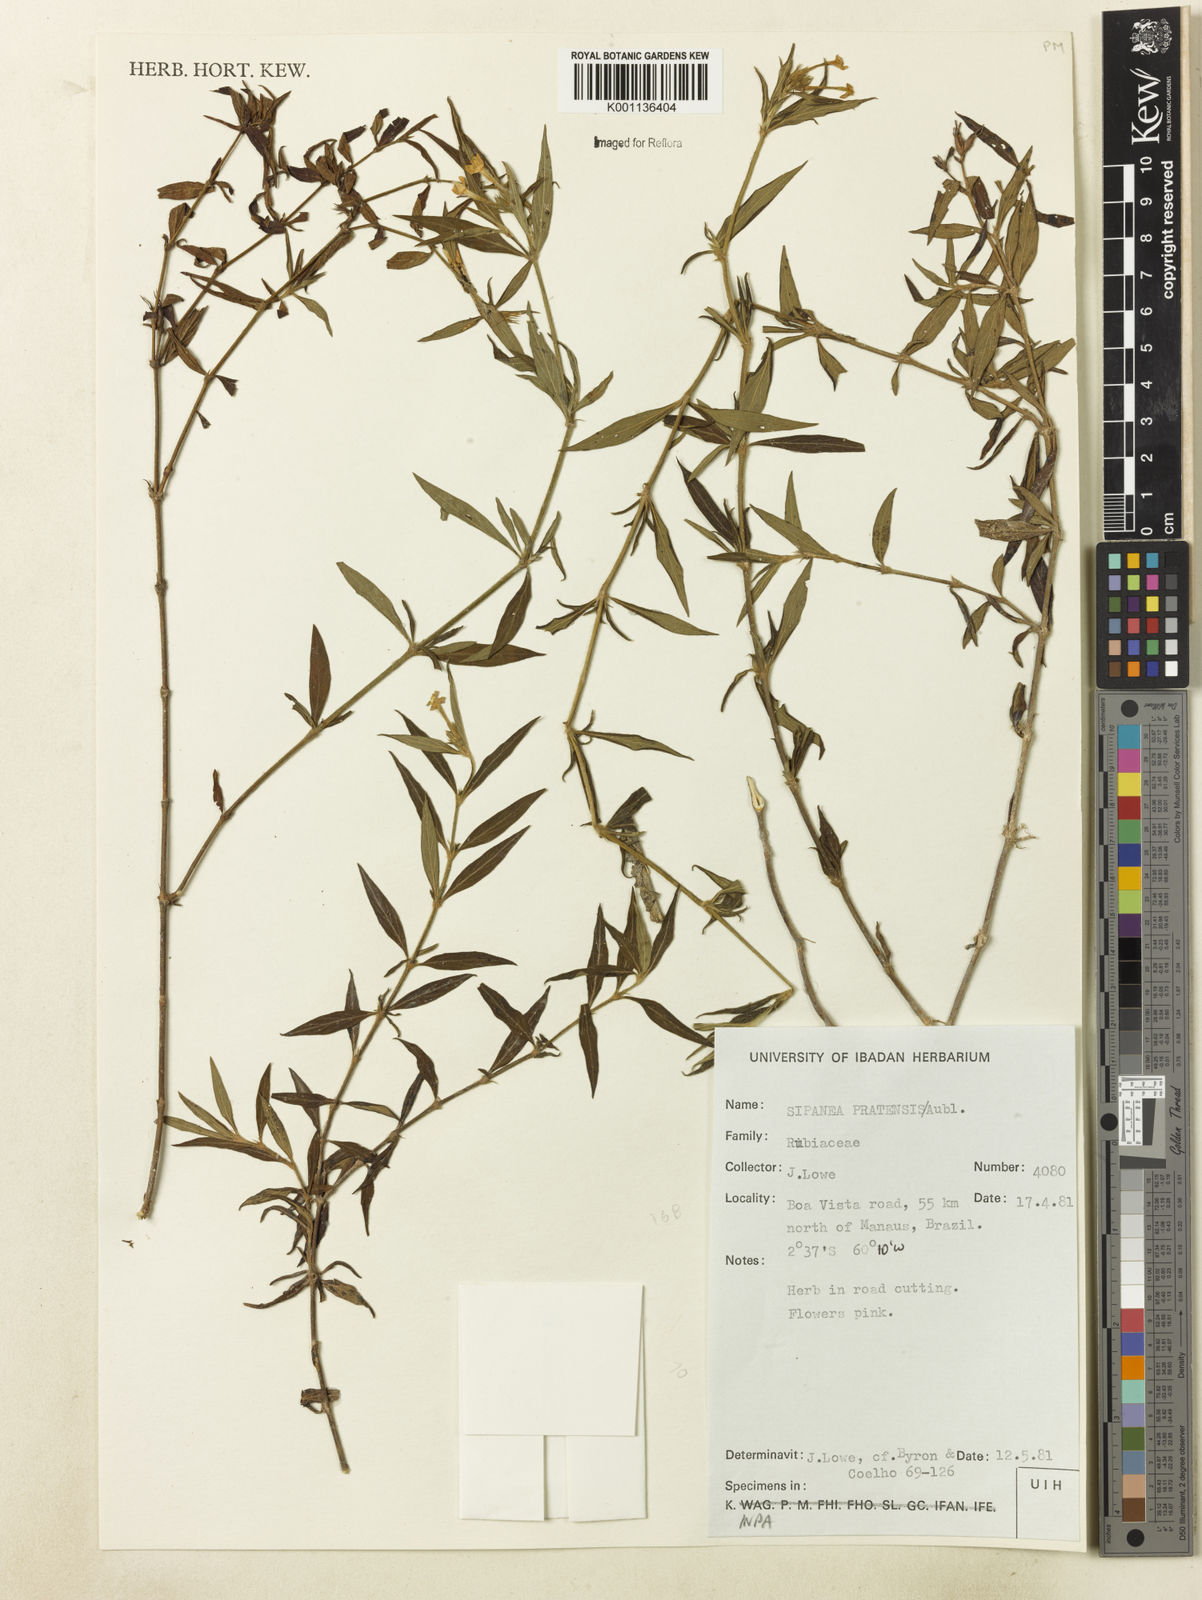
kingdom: Plantae
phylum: Tracheophyta
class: Magnoliopsida
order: Gentianales
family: Rubiaceae
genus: Sipanea
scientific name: Sipanea pratensis
